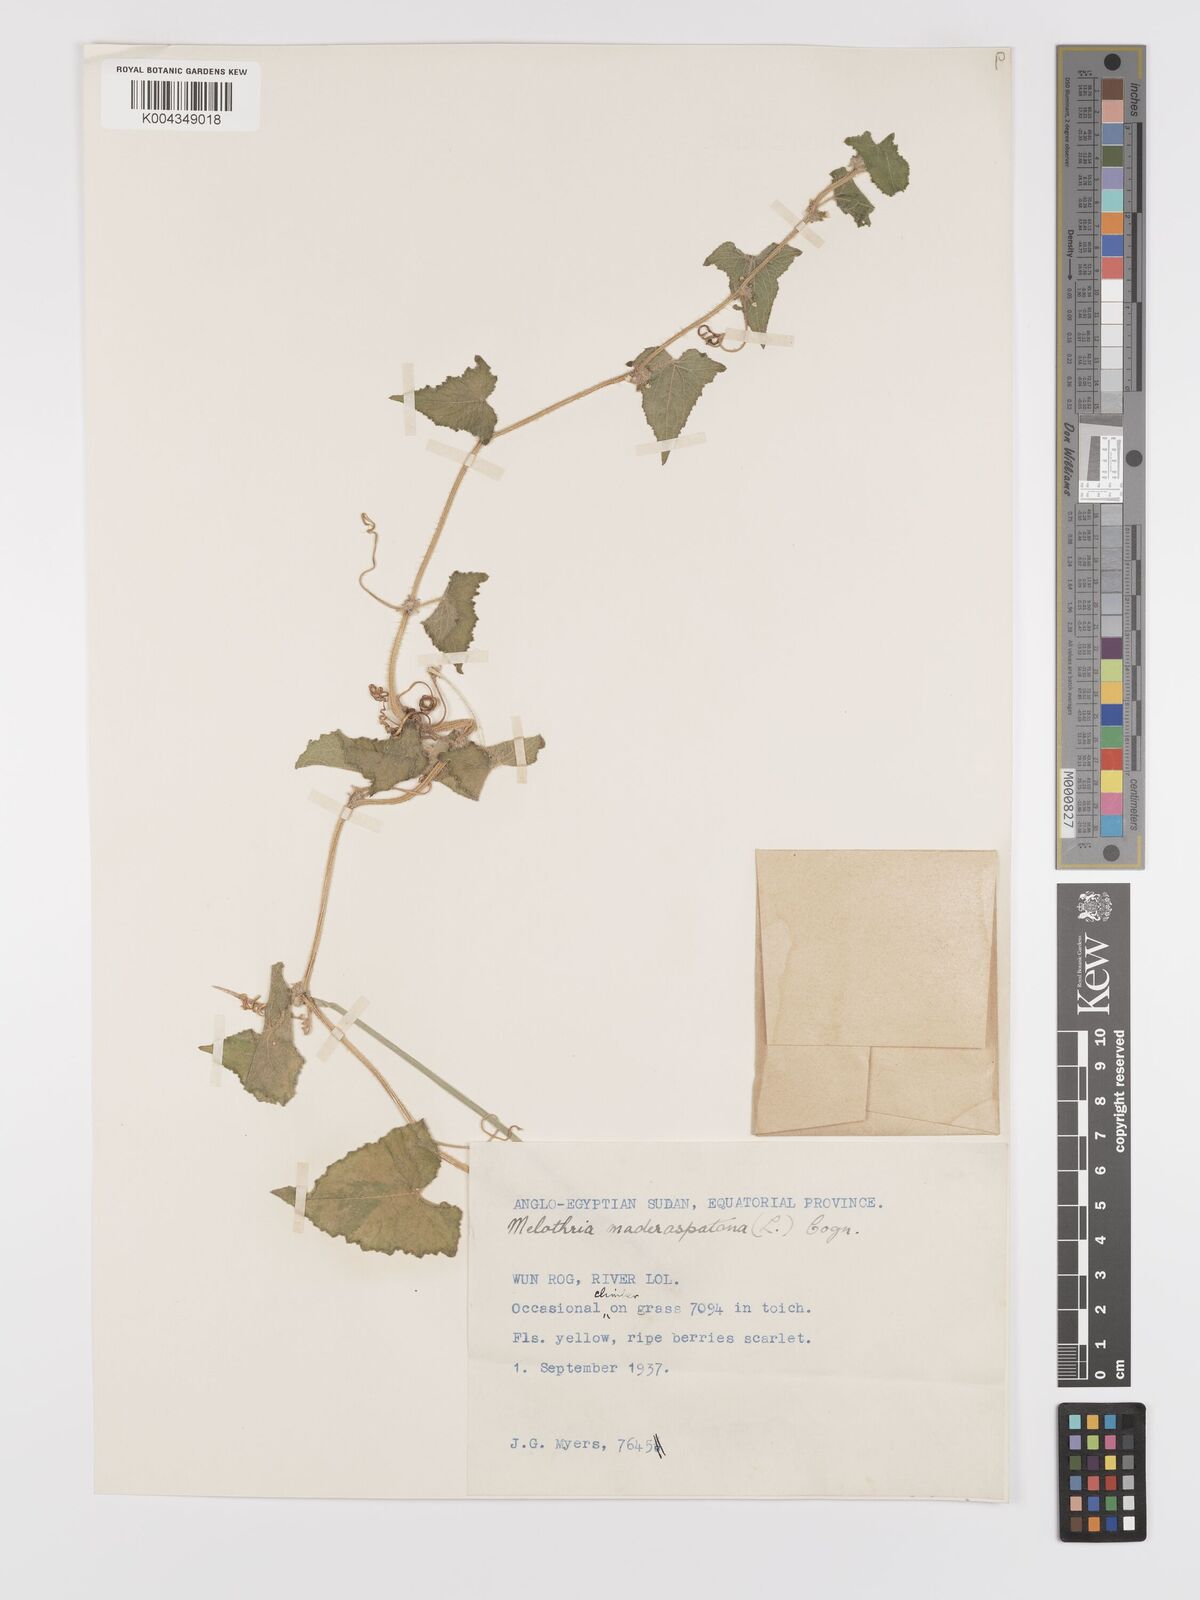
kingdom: Plantae
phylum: Tracheophyta
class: Magnoliopsida
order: Cucurbitales
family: Cucurbitaceae
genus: Cucumis
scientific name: Cucumis maderaspatanus
